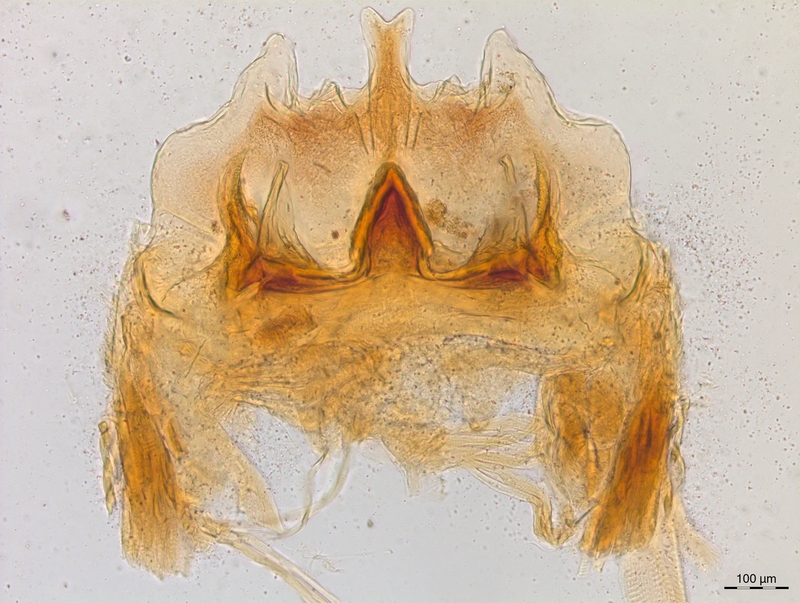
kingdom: Animalia
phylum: Arthropoda
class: Diplopoda
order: Chordeumatida
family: Craspedosomatidae
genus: Craspedosoma
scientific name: Craspedosoma rawlinsii
